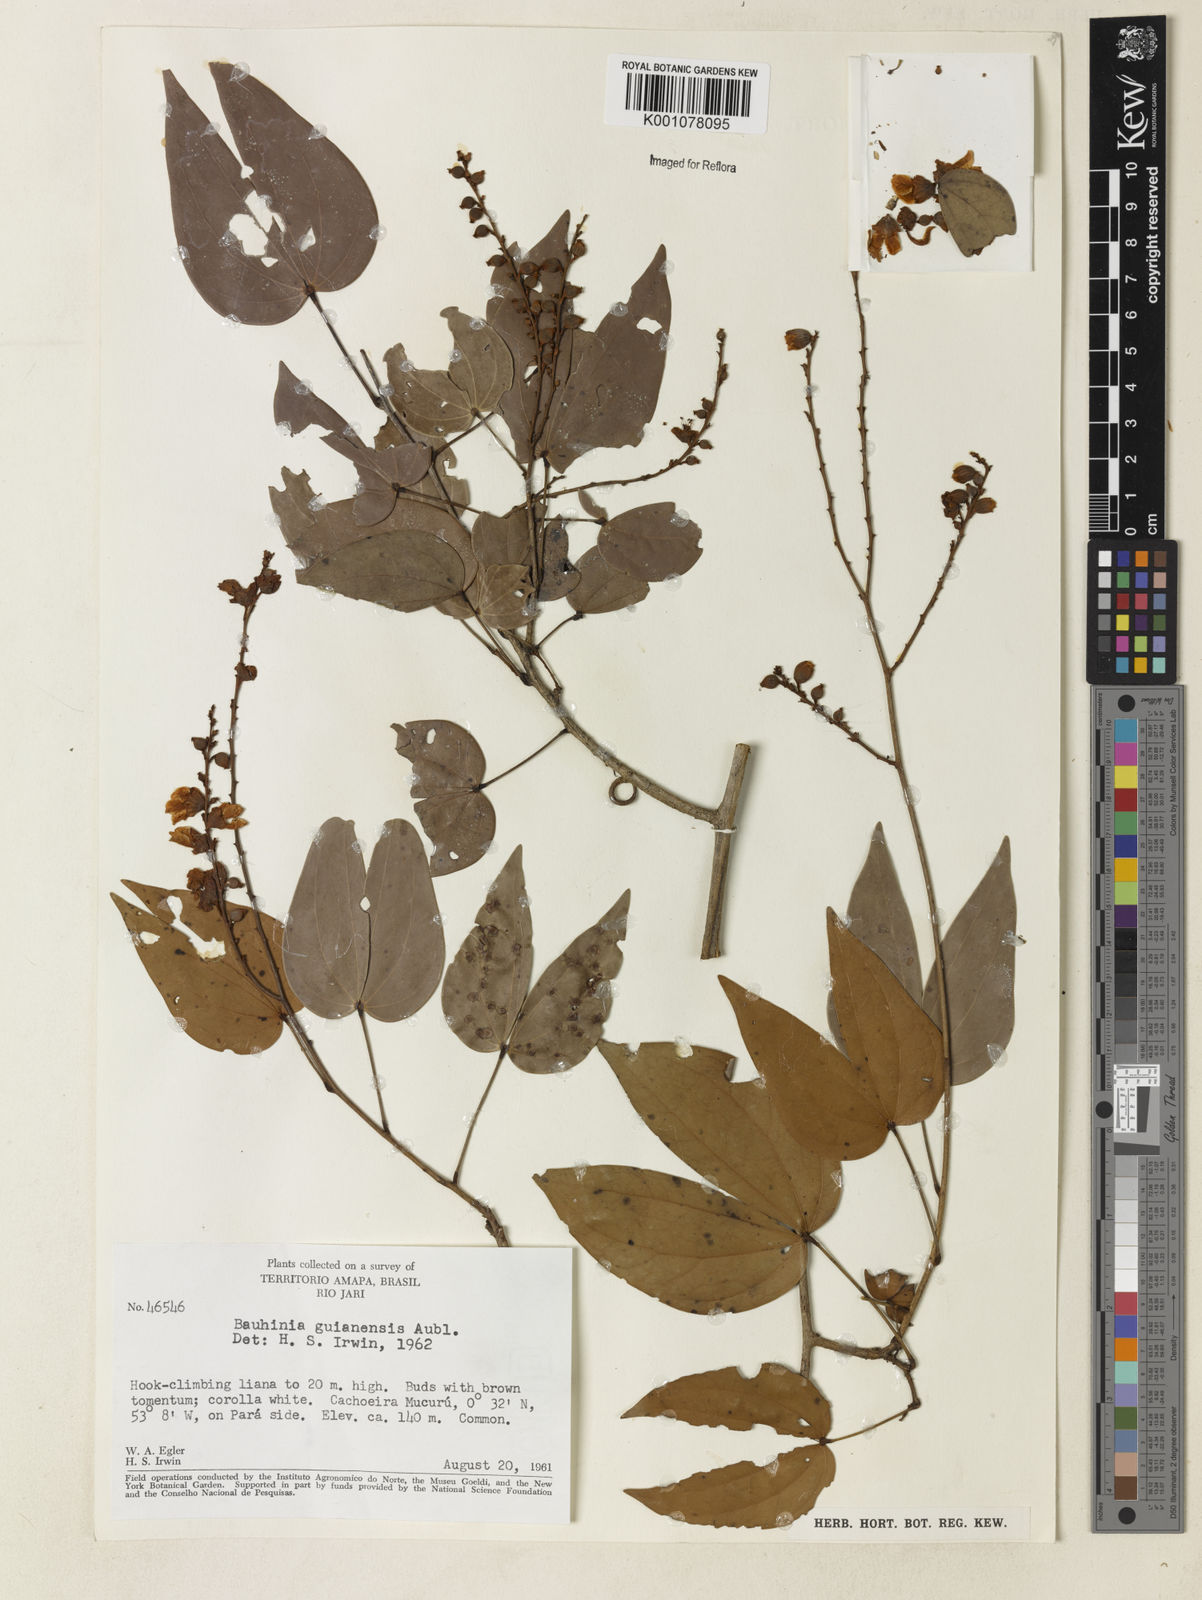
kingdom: Plantae
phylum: Tracheophyta
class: Magnoliopsida
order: Fabales
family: Fabaceae
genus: Schnella
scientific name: Schnella guianensis
